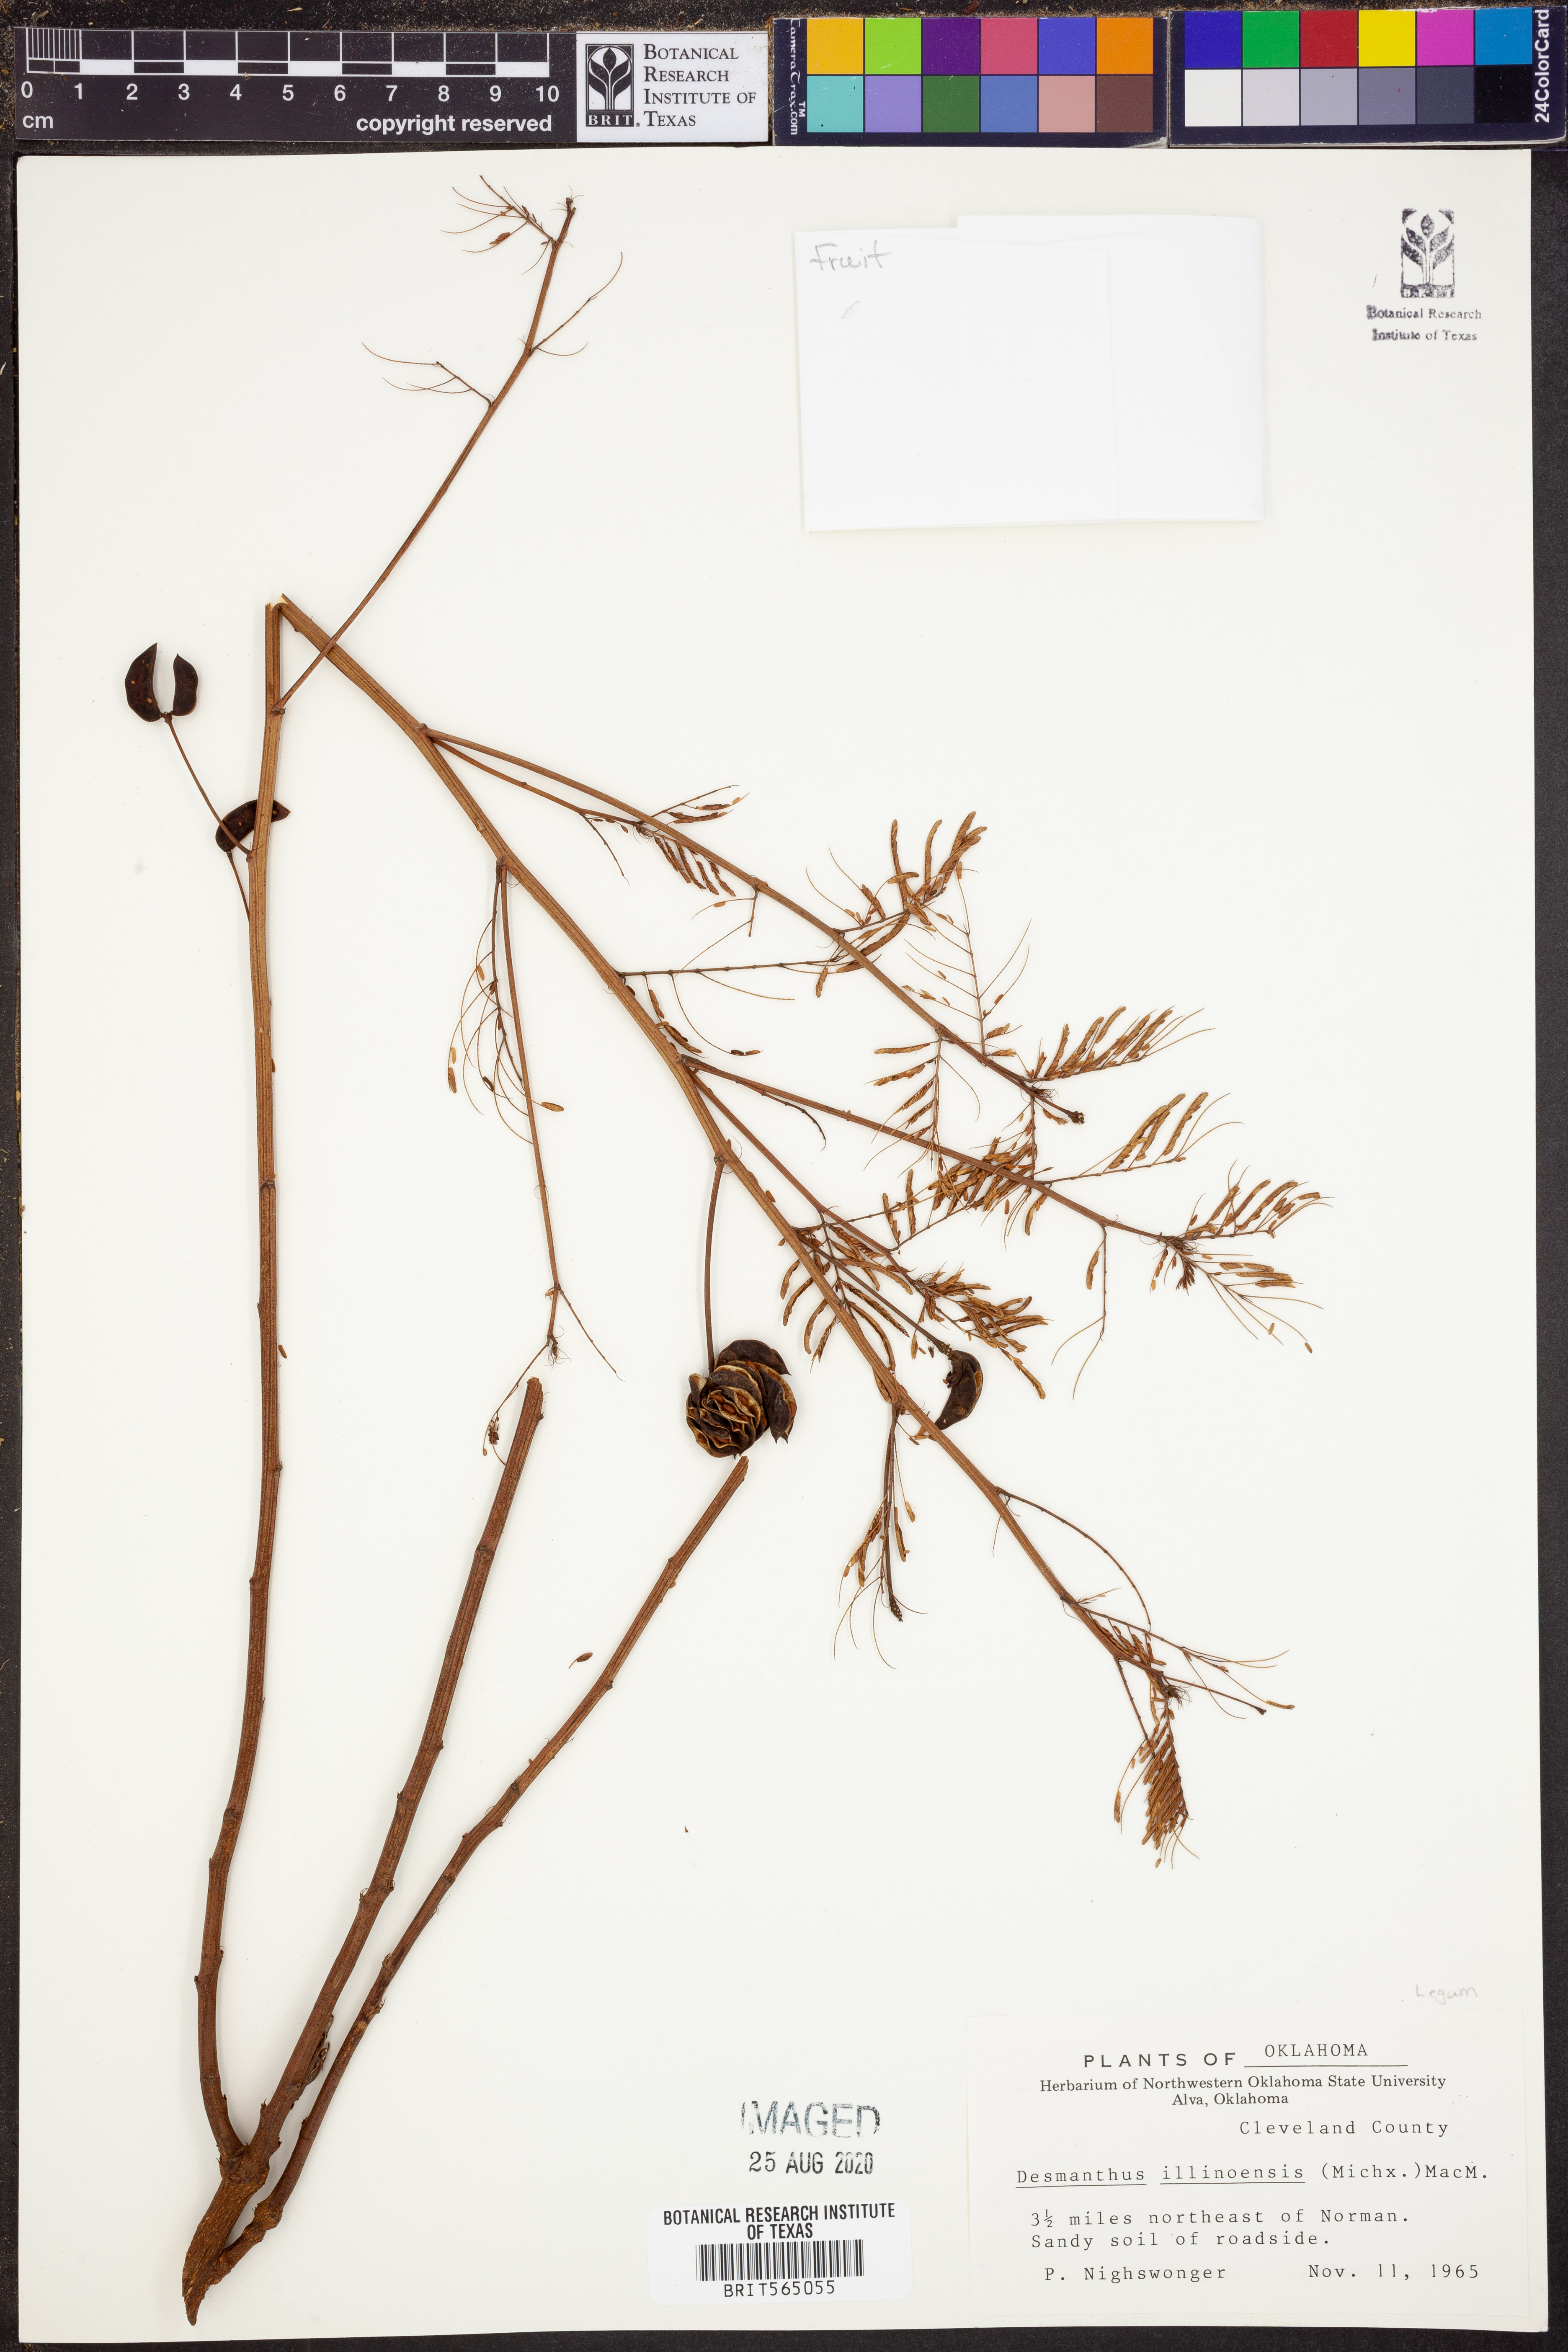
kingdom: Plantae
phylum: Tracheophyta
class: Magnoliopsida
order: Fabales
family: Fabaceae
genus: Desmanthus
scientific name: Desmanthus illinoensis
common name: Illinois bundle-flower
